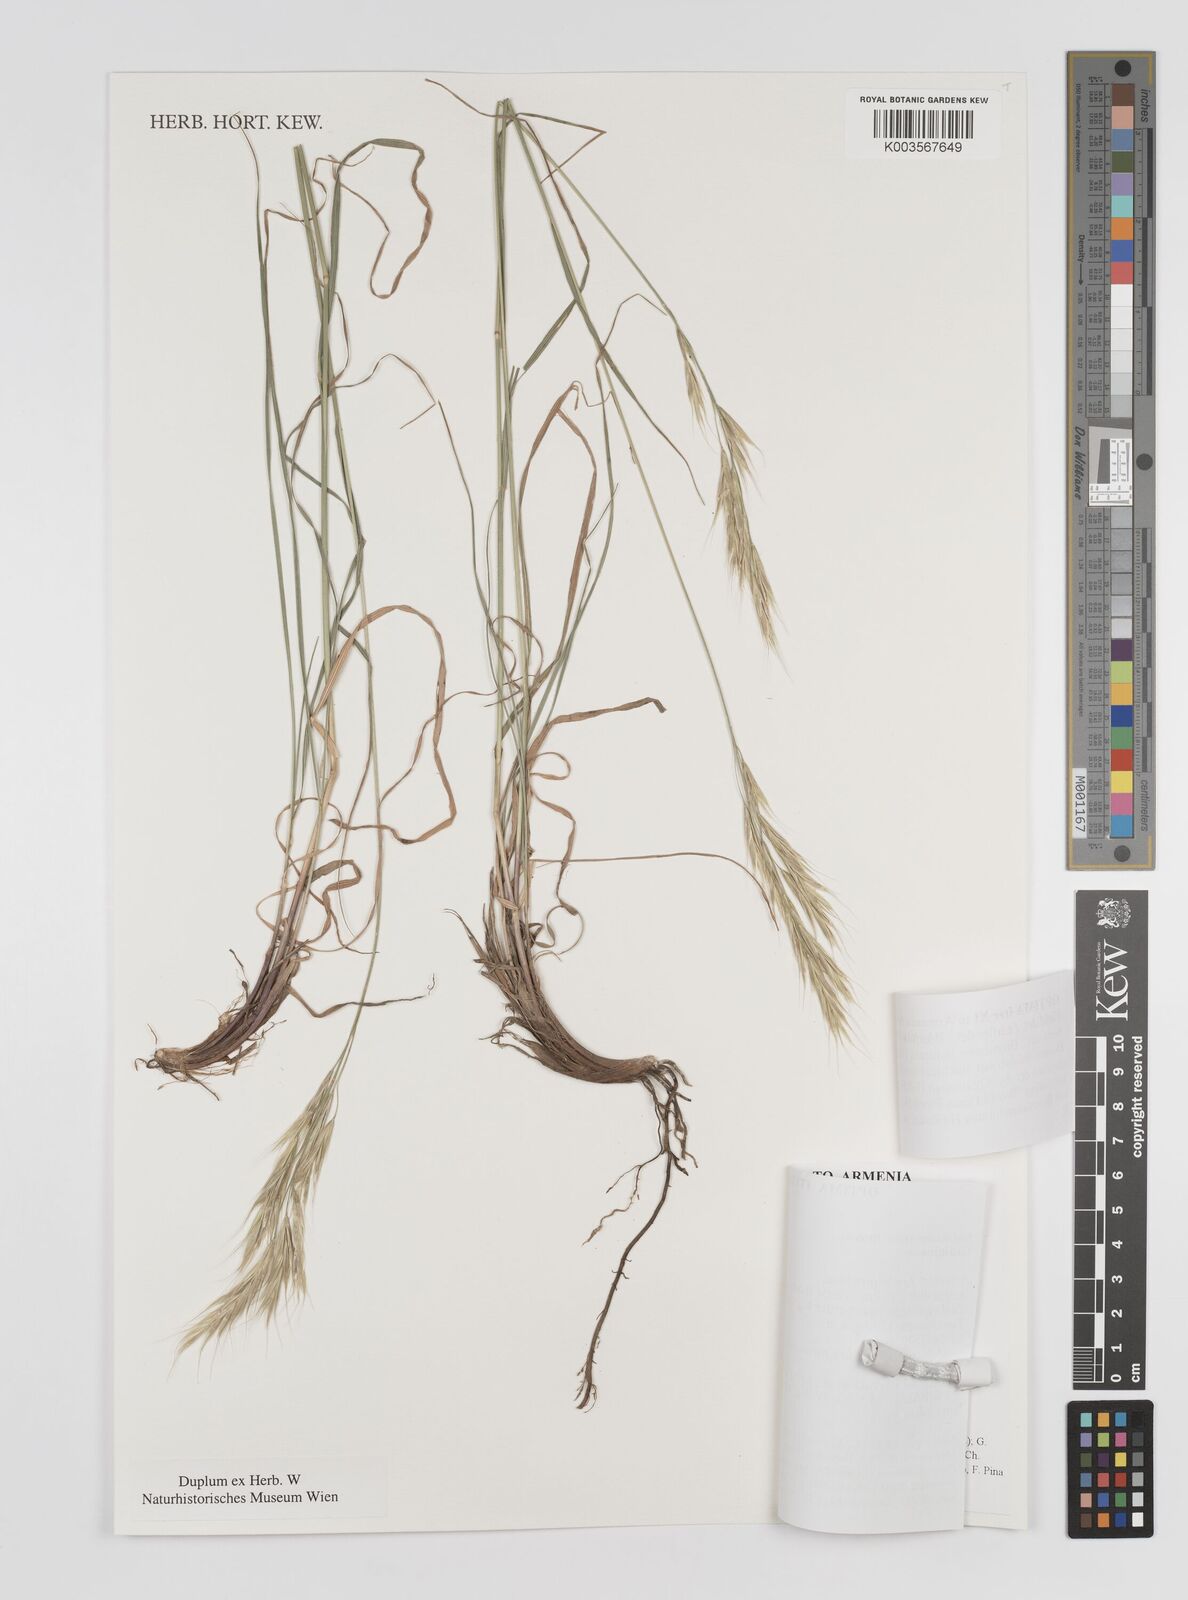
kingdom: Plantae
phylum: Tracheophyta
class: Liliopsida
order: Poales
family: Poaceae
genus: Bromus
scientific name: Bromus induratus
